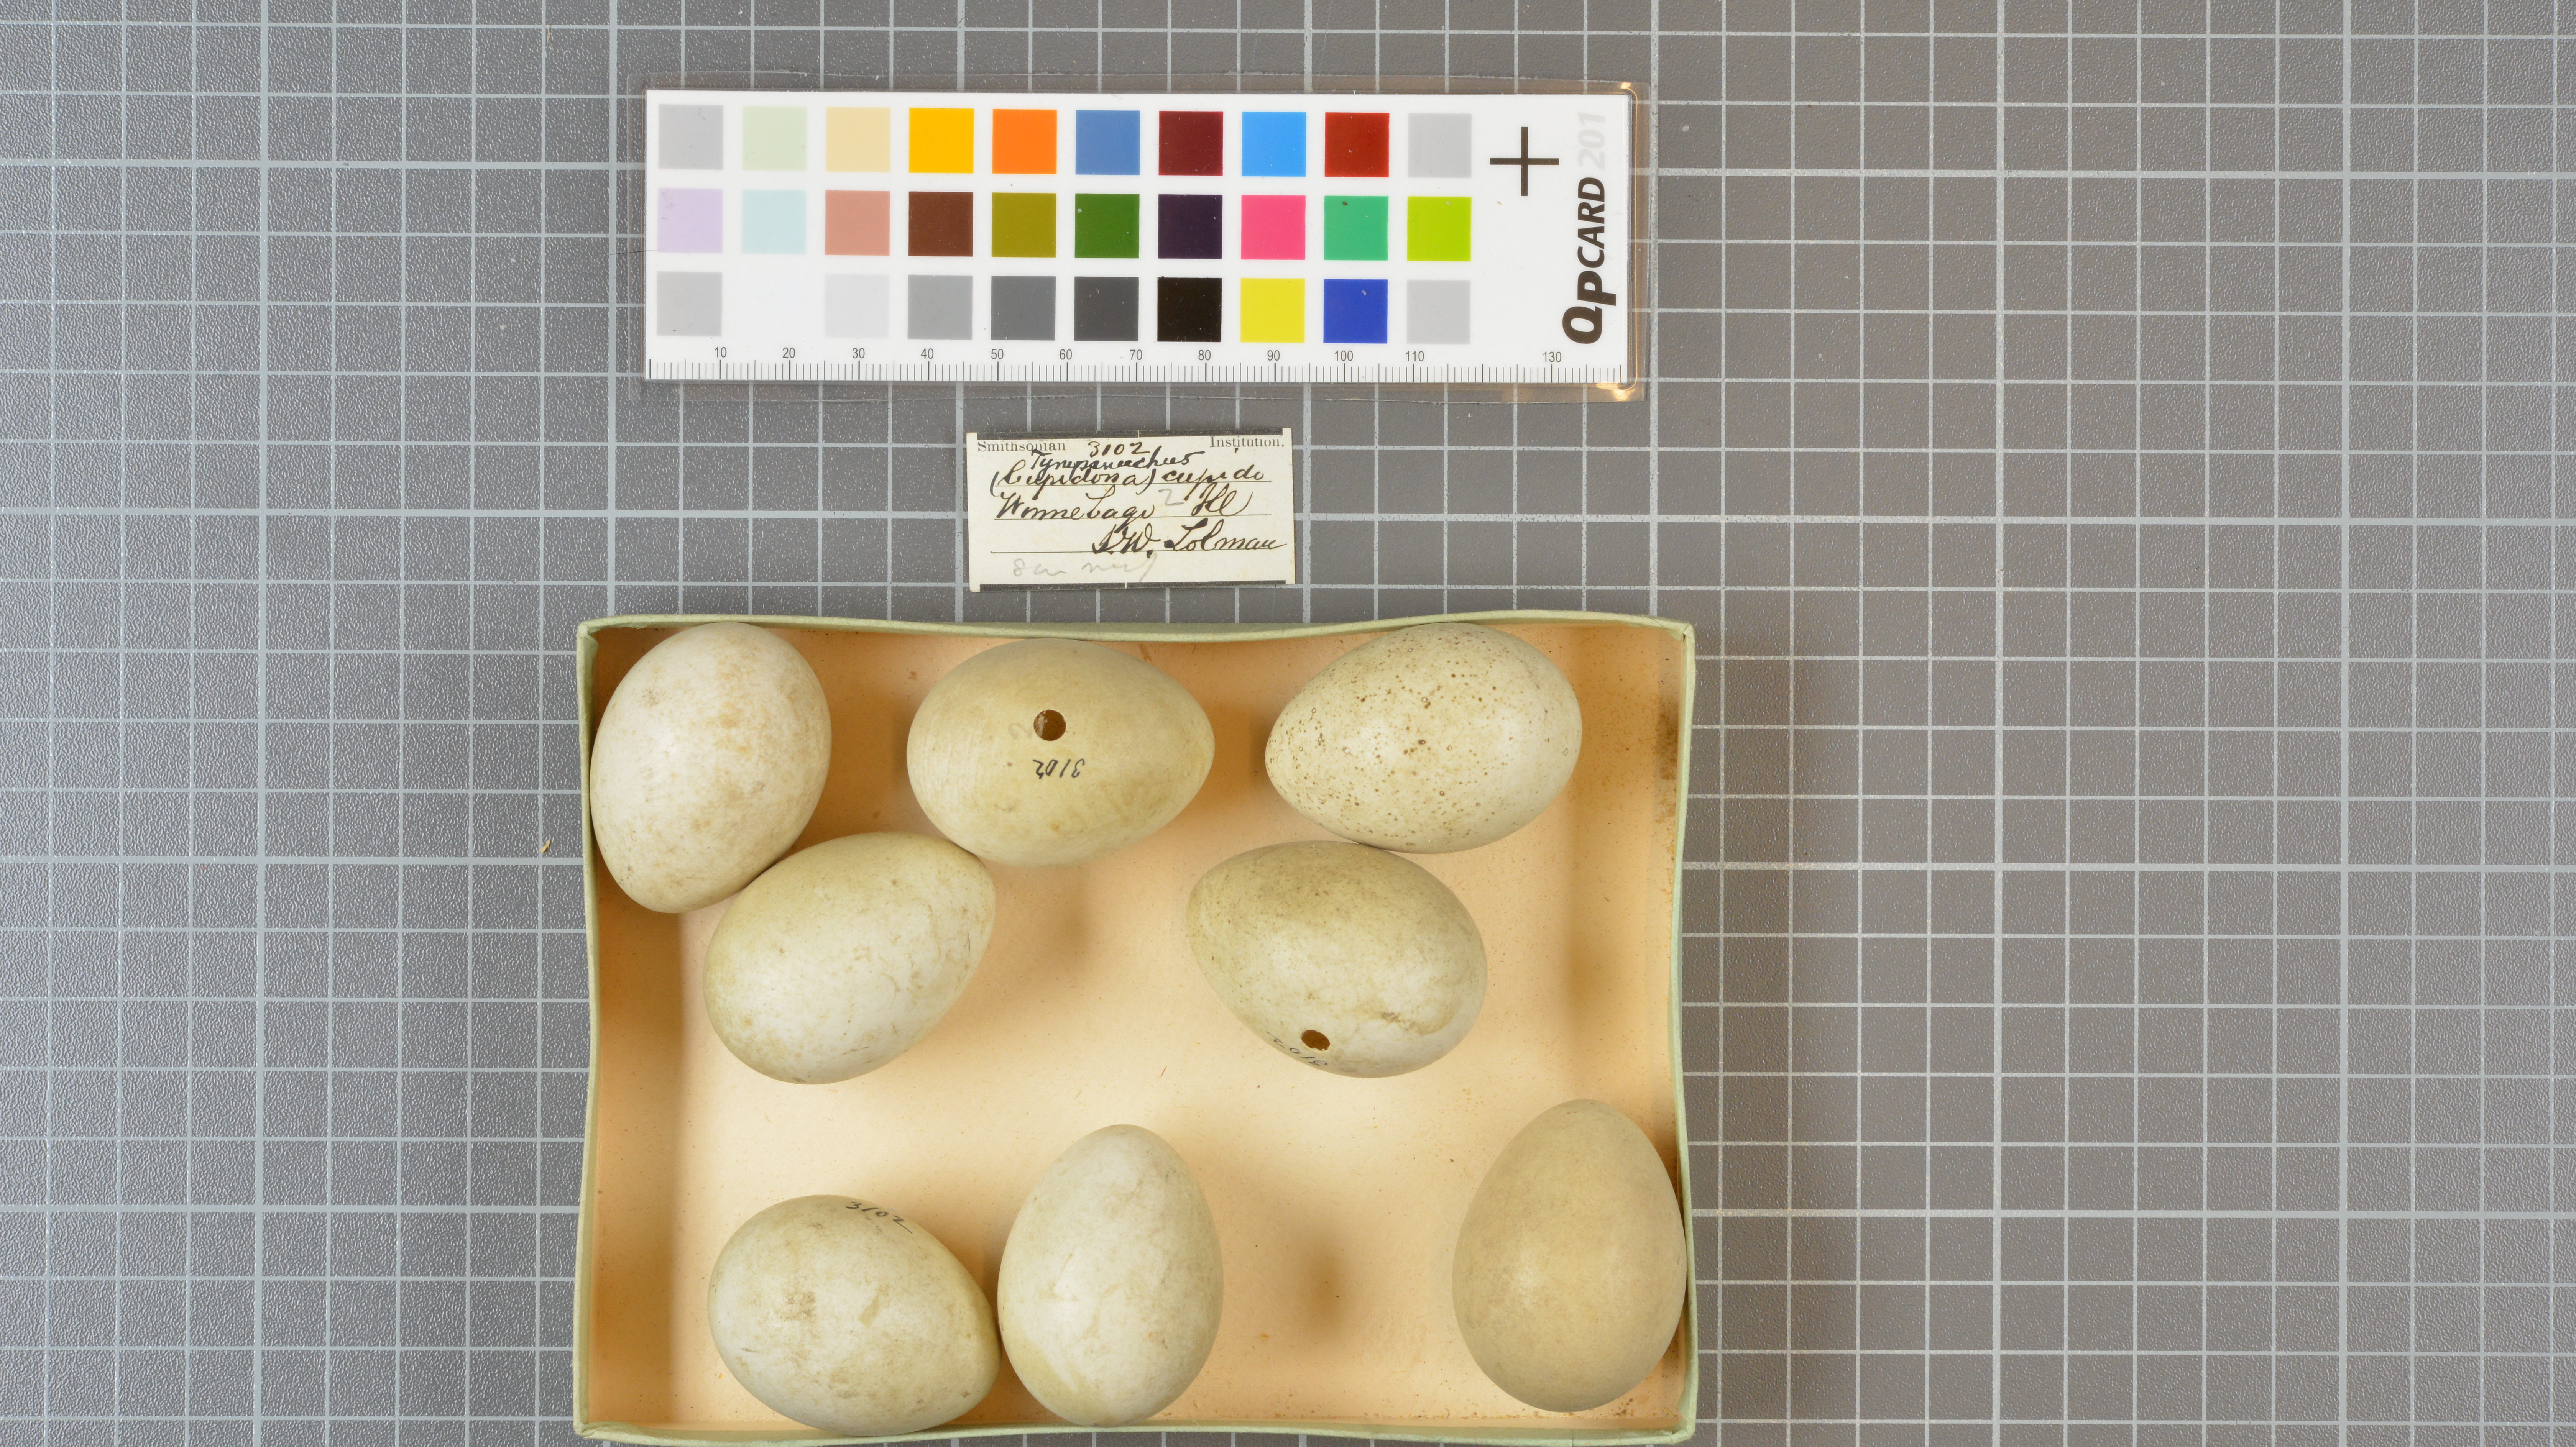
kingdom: Animalia
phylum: Chordata
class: Aves
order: Galliformes
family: Phasianidae
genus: Tympanuchus
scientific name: Tympanuchus cupido
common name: Greater prairie chicken
